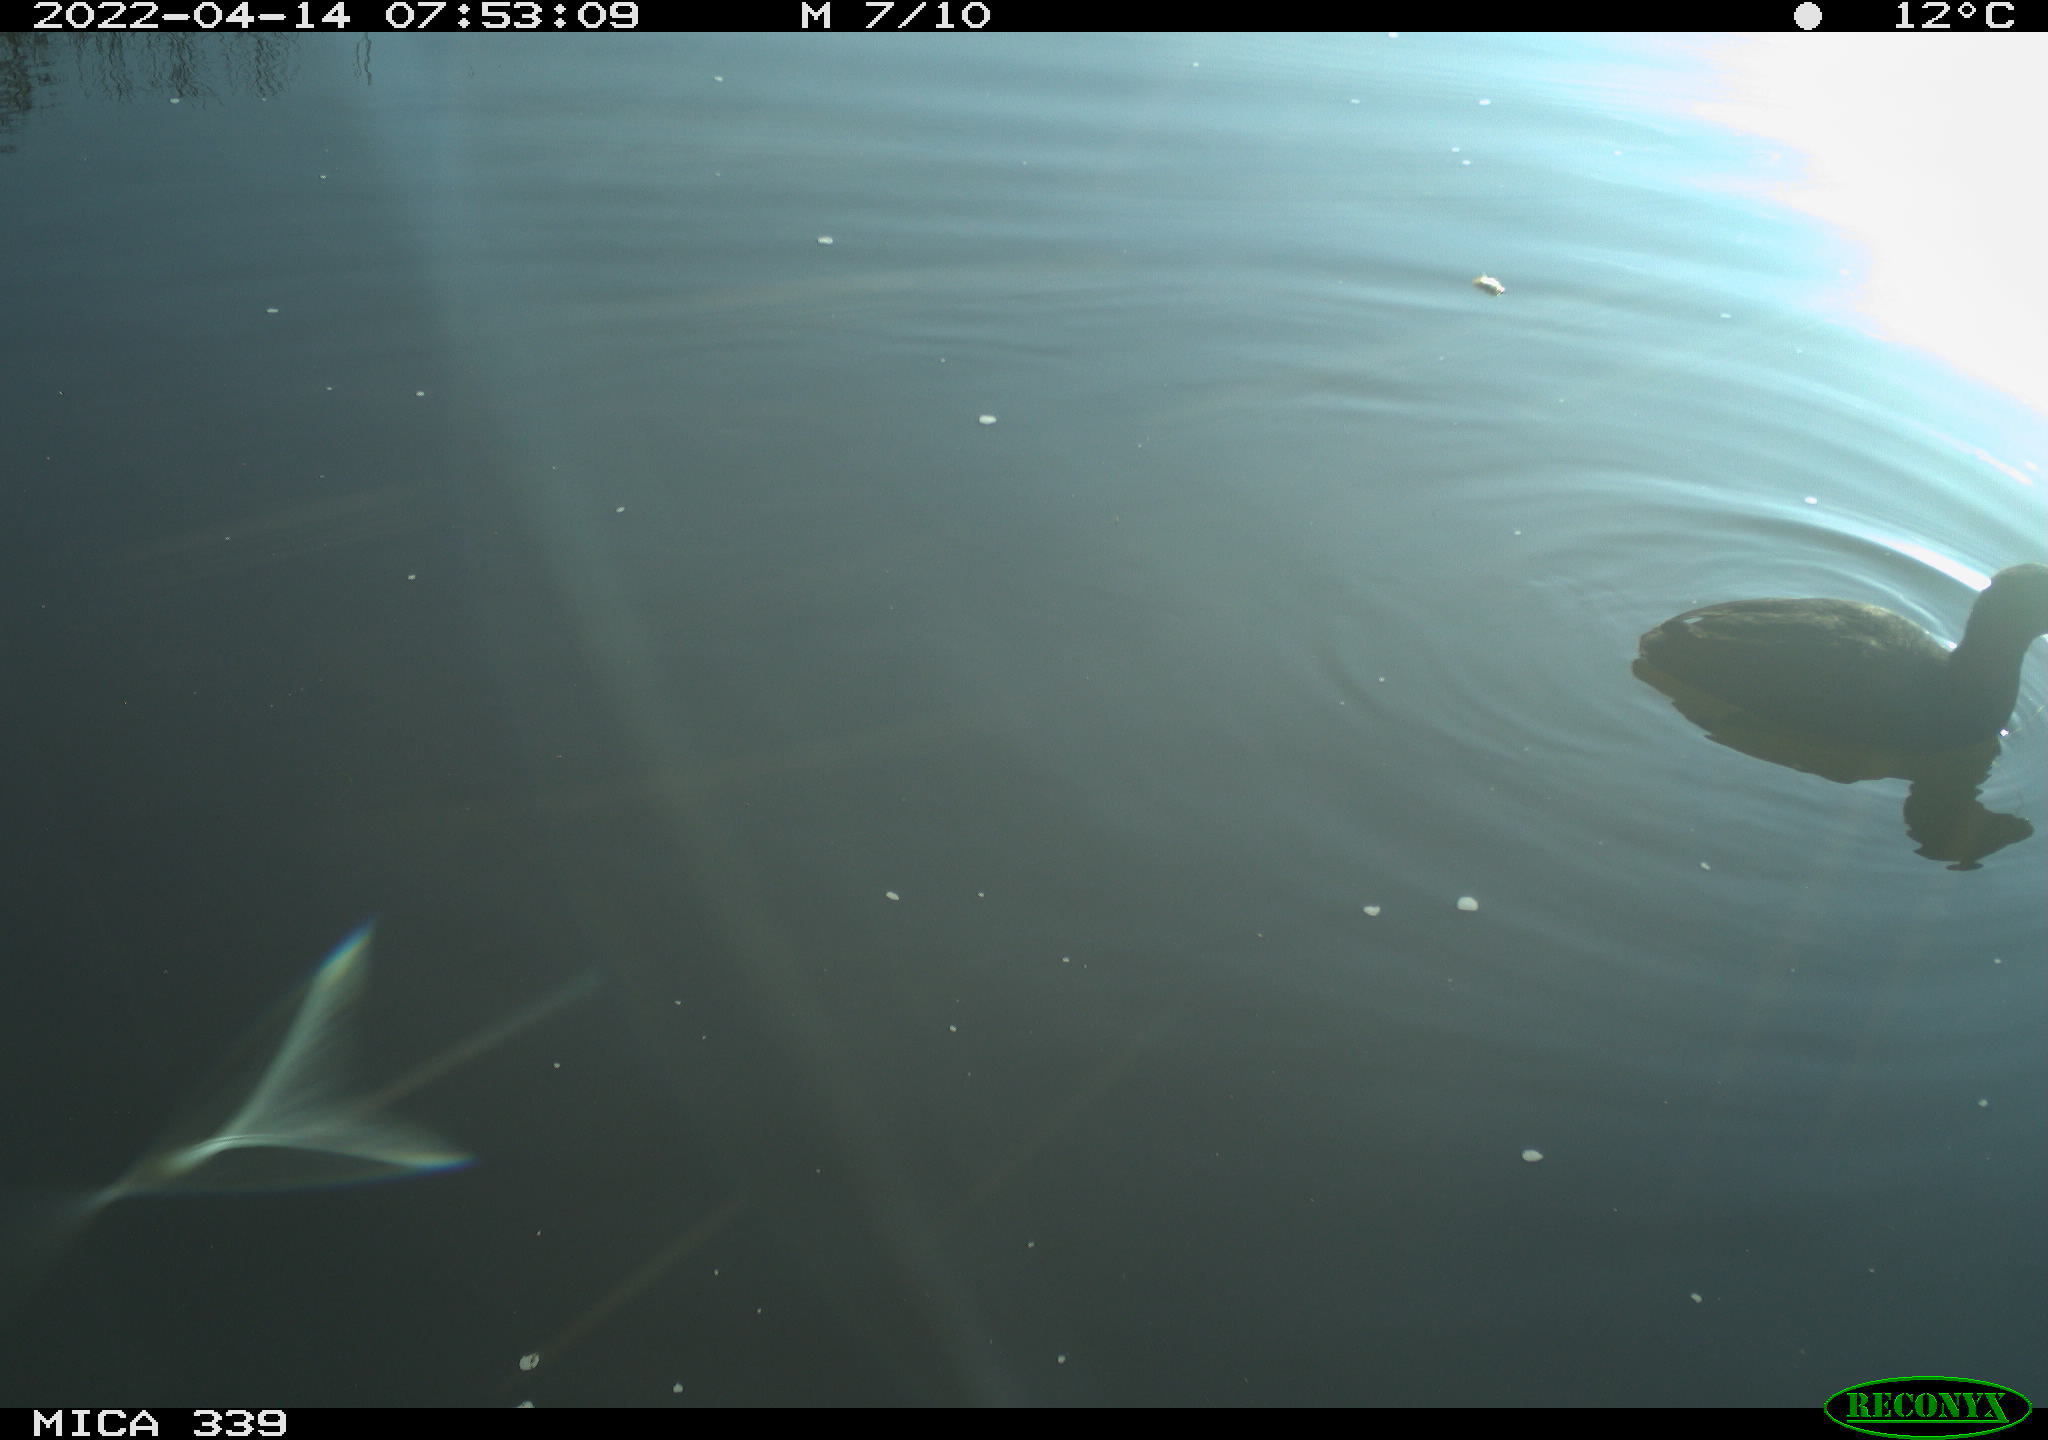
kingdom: Animalia
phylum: Chordata
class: Aves
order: Gruiformes
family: Rallidae
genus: Fulica
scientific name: Fulica atra
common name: Eurasian coot
